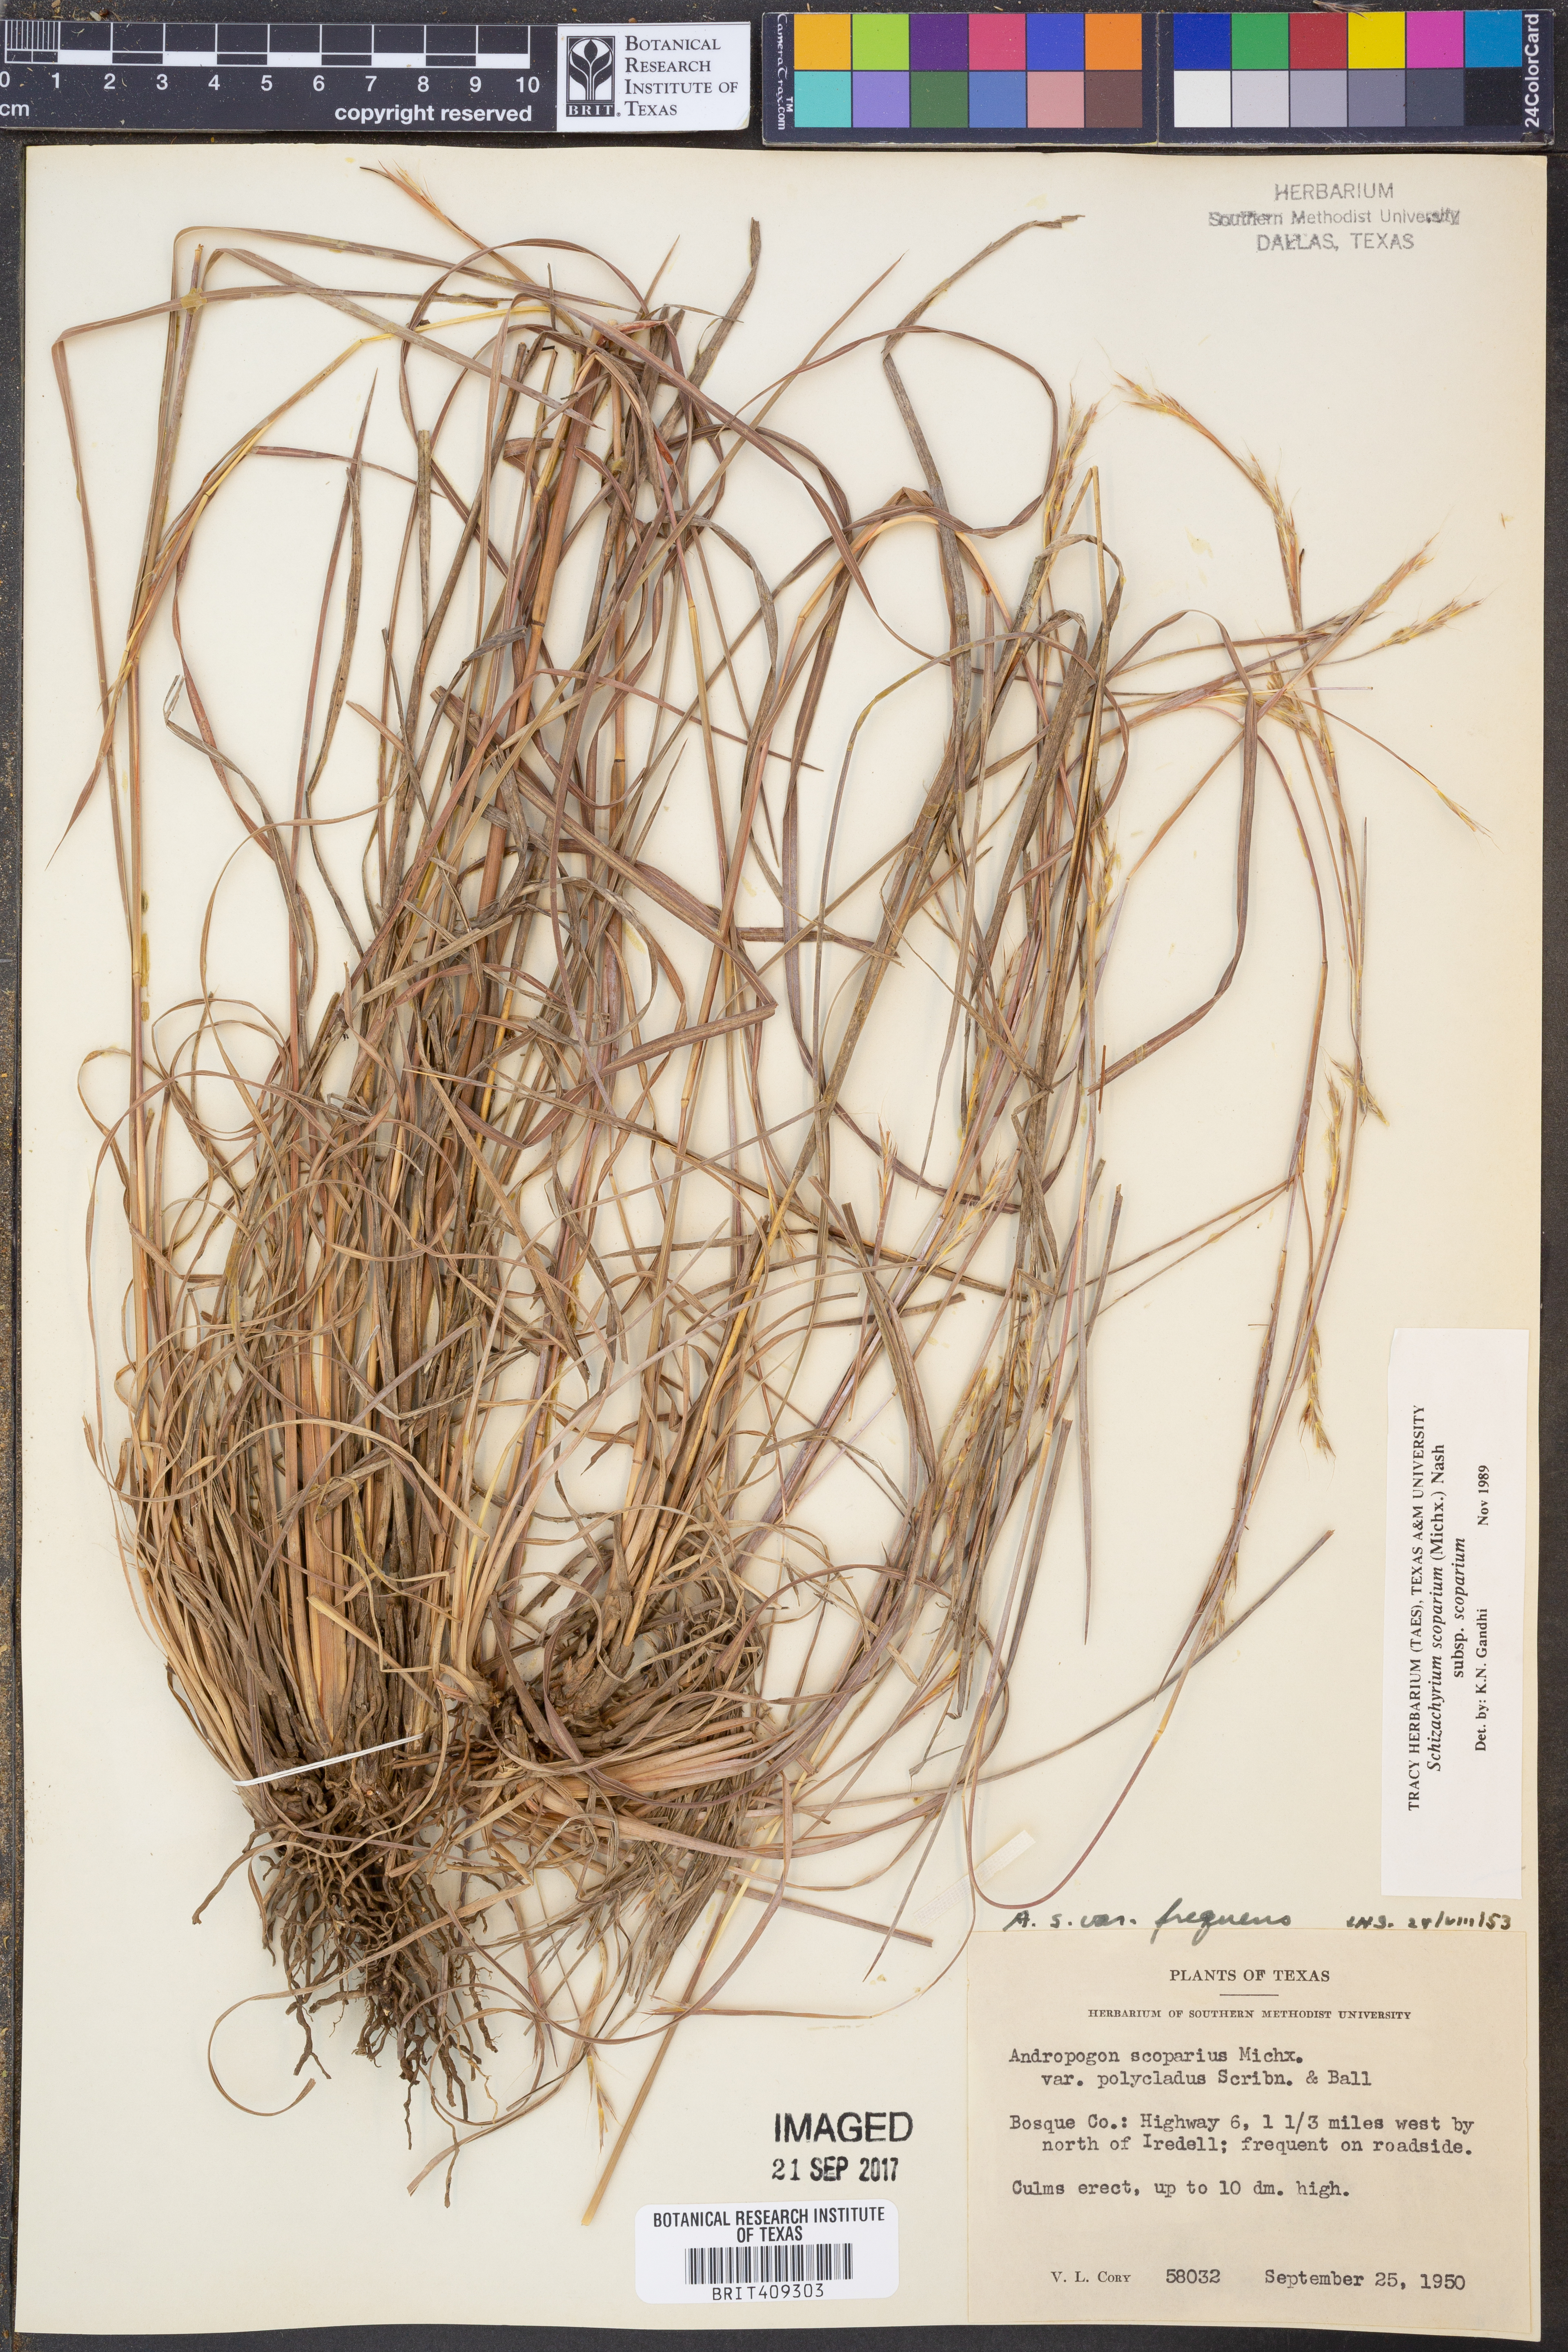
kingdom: Plantae
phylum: Tracheophyta
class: Liliopsida
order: Poales
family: Poaceae
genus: Schizachyrium
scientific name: Schizachyrium scoparium
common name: Little bluestem
